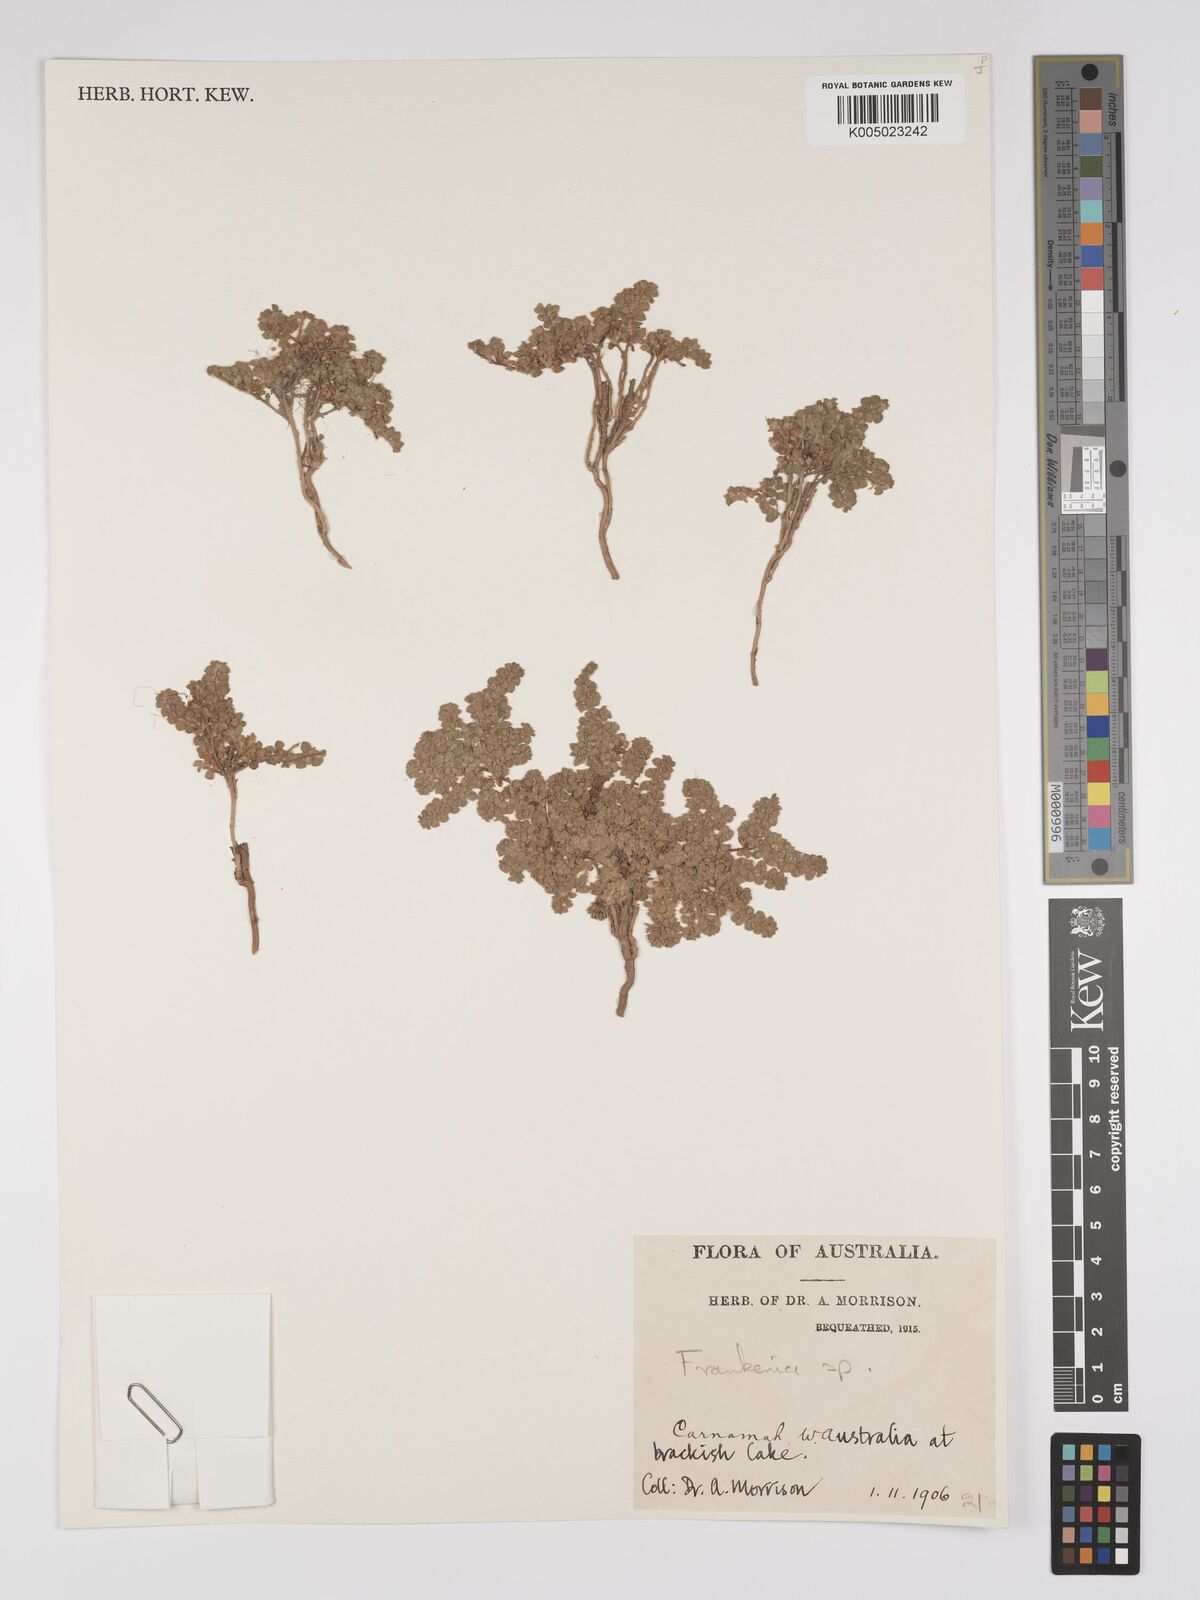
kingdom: Plantae
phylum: Tracheophyta
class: Magnoliopsida
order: Caryophyllales
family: Frankeniaceae
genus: Frankenia
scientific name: Frankenia
